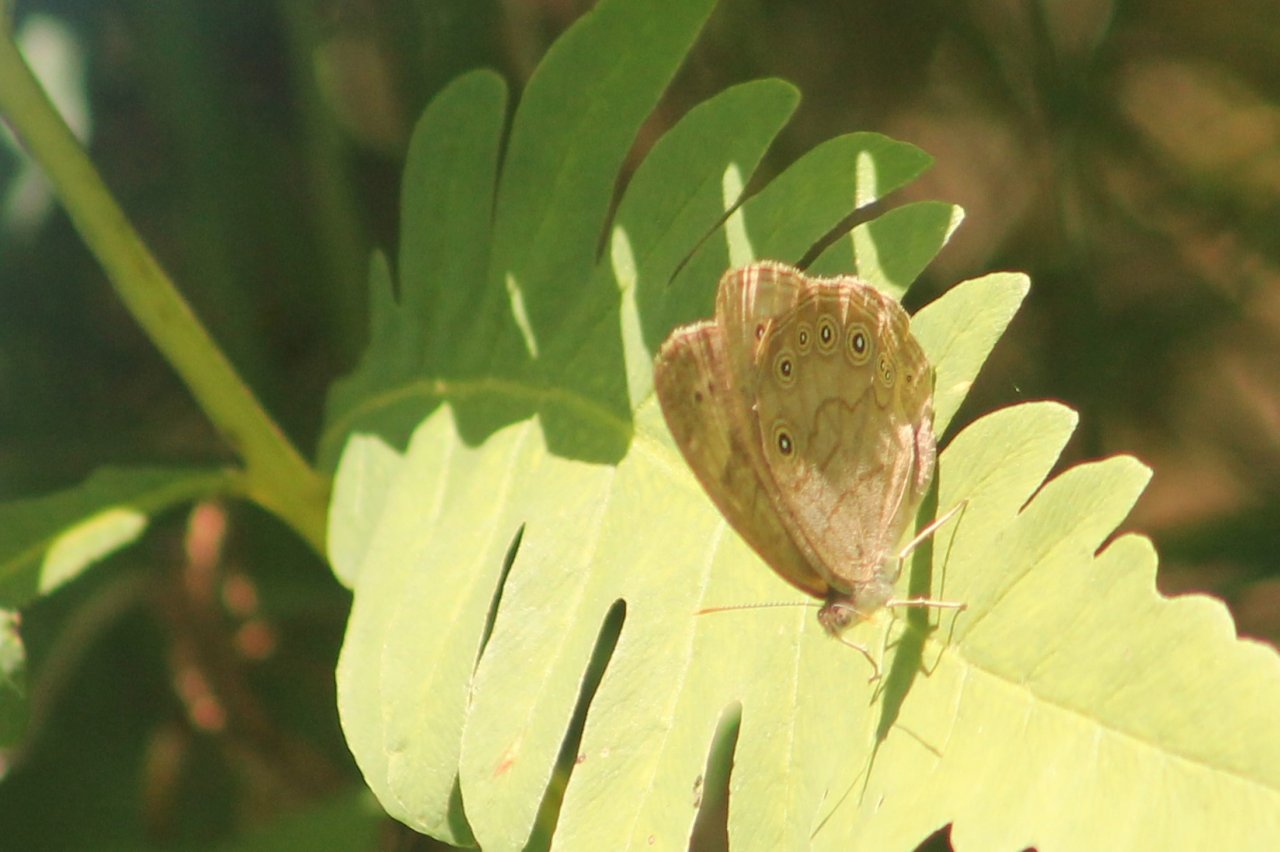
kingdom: Animalia
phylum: Arthropoda
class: Insecta
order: Lepidoptera
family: Nymphalidae
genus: Lethe
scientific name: Lethe eurydice
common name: Eyed Brown
